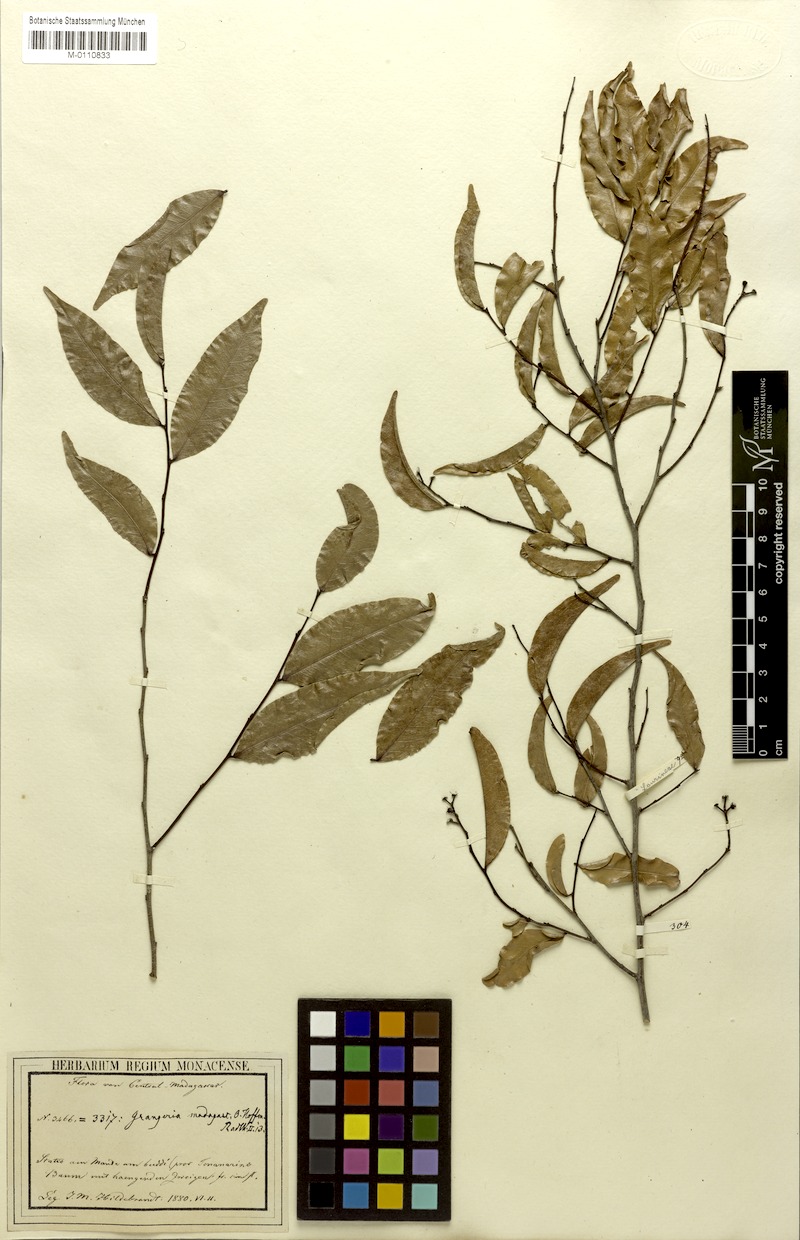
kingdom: Plantae
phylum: Tracheophyta
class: Magnoliopsida
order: Malpighiales
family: Chrysobalanaceae
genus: Grangeria
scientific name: Grangeria porosa
